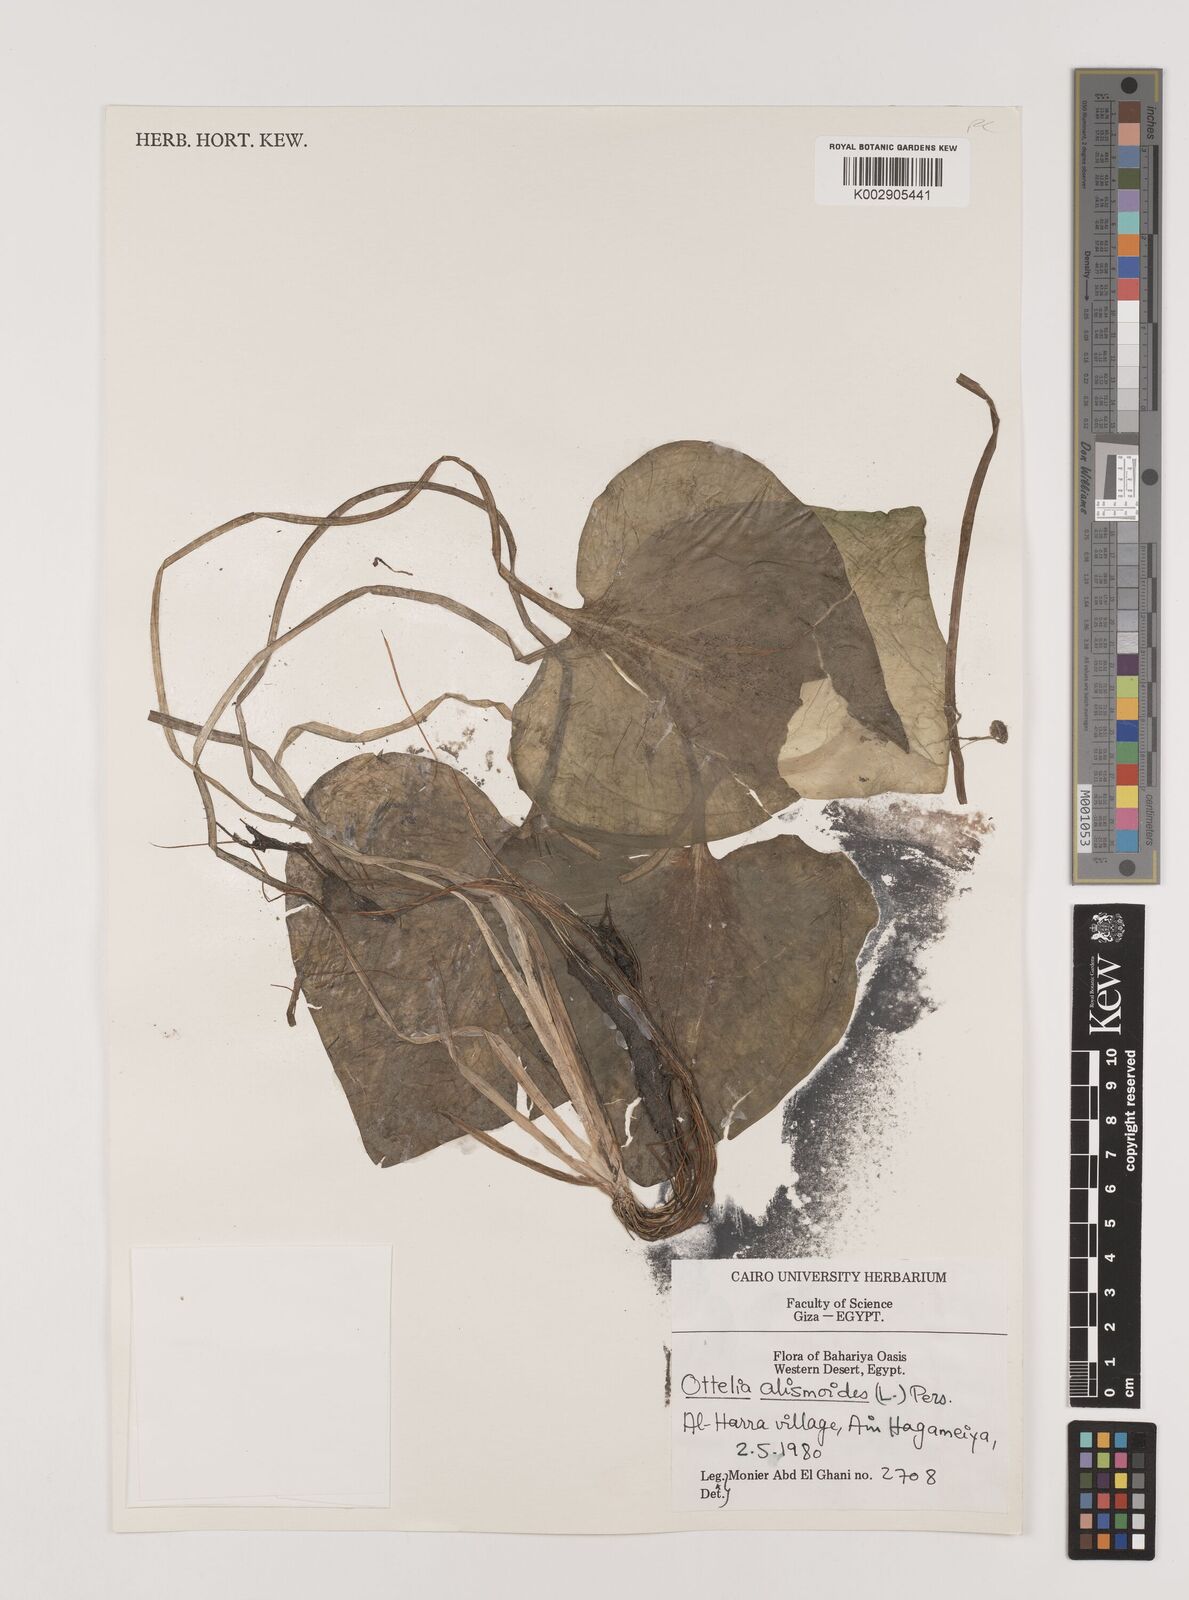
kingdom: Plantae
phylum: Tracheophyta
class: Liliopsida
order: Alismatales
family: Hydrocharitaceae
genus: Ottelia
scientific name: Ottelia alismoides
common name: Duck-lettuce
